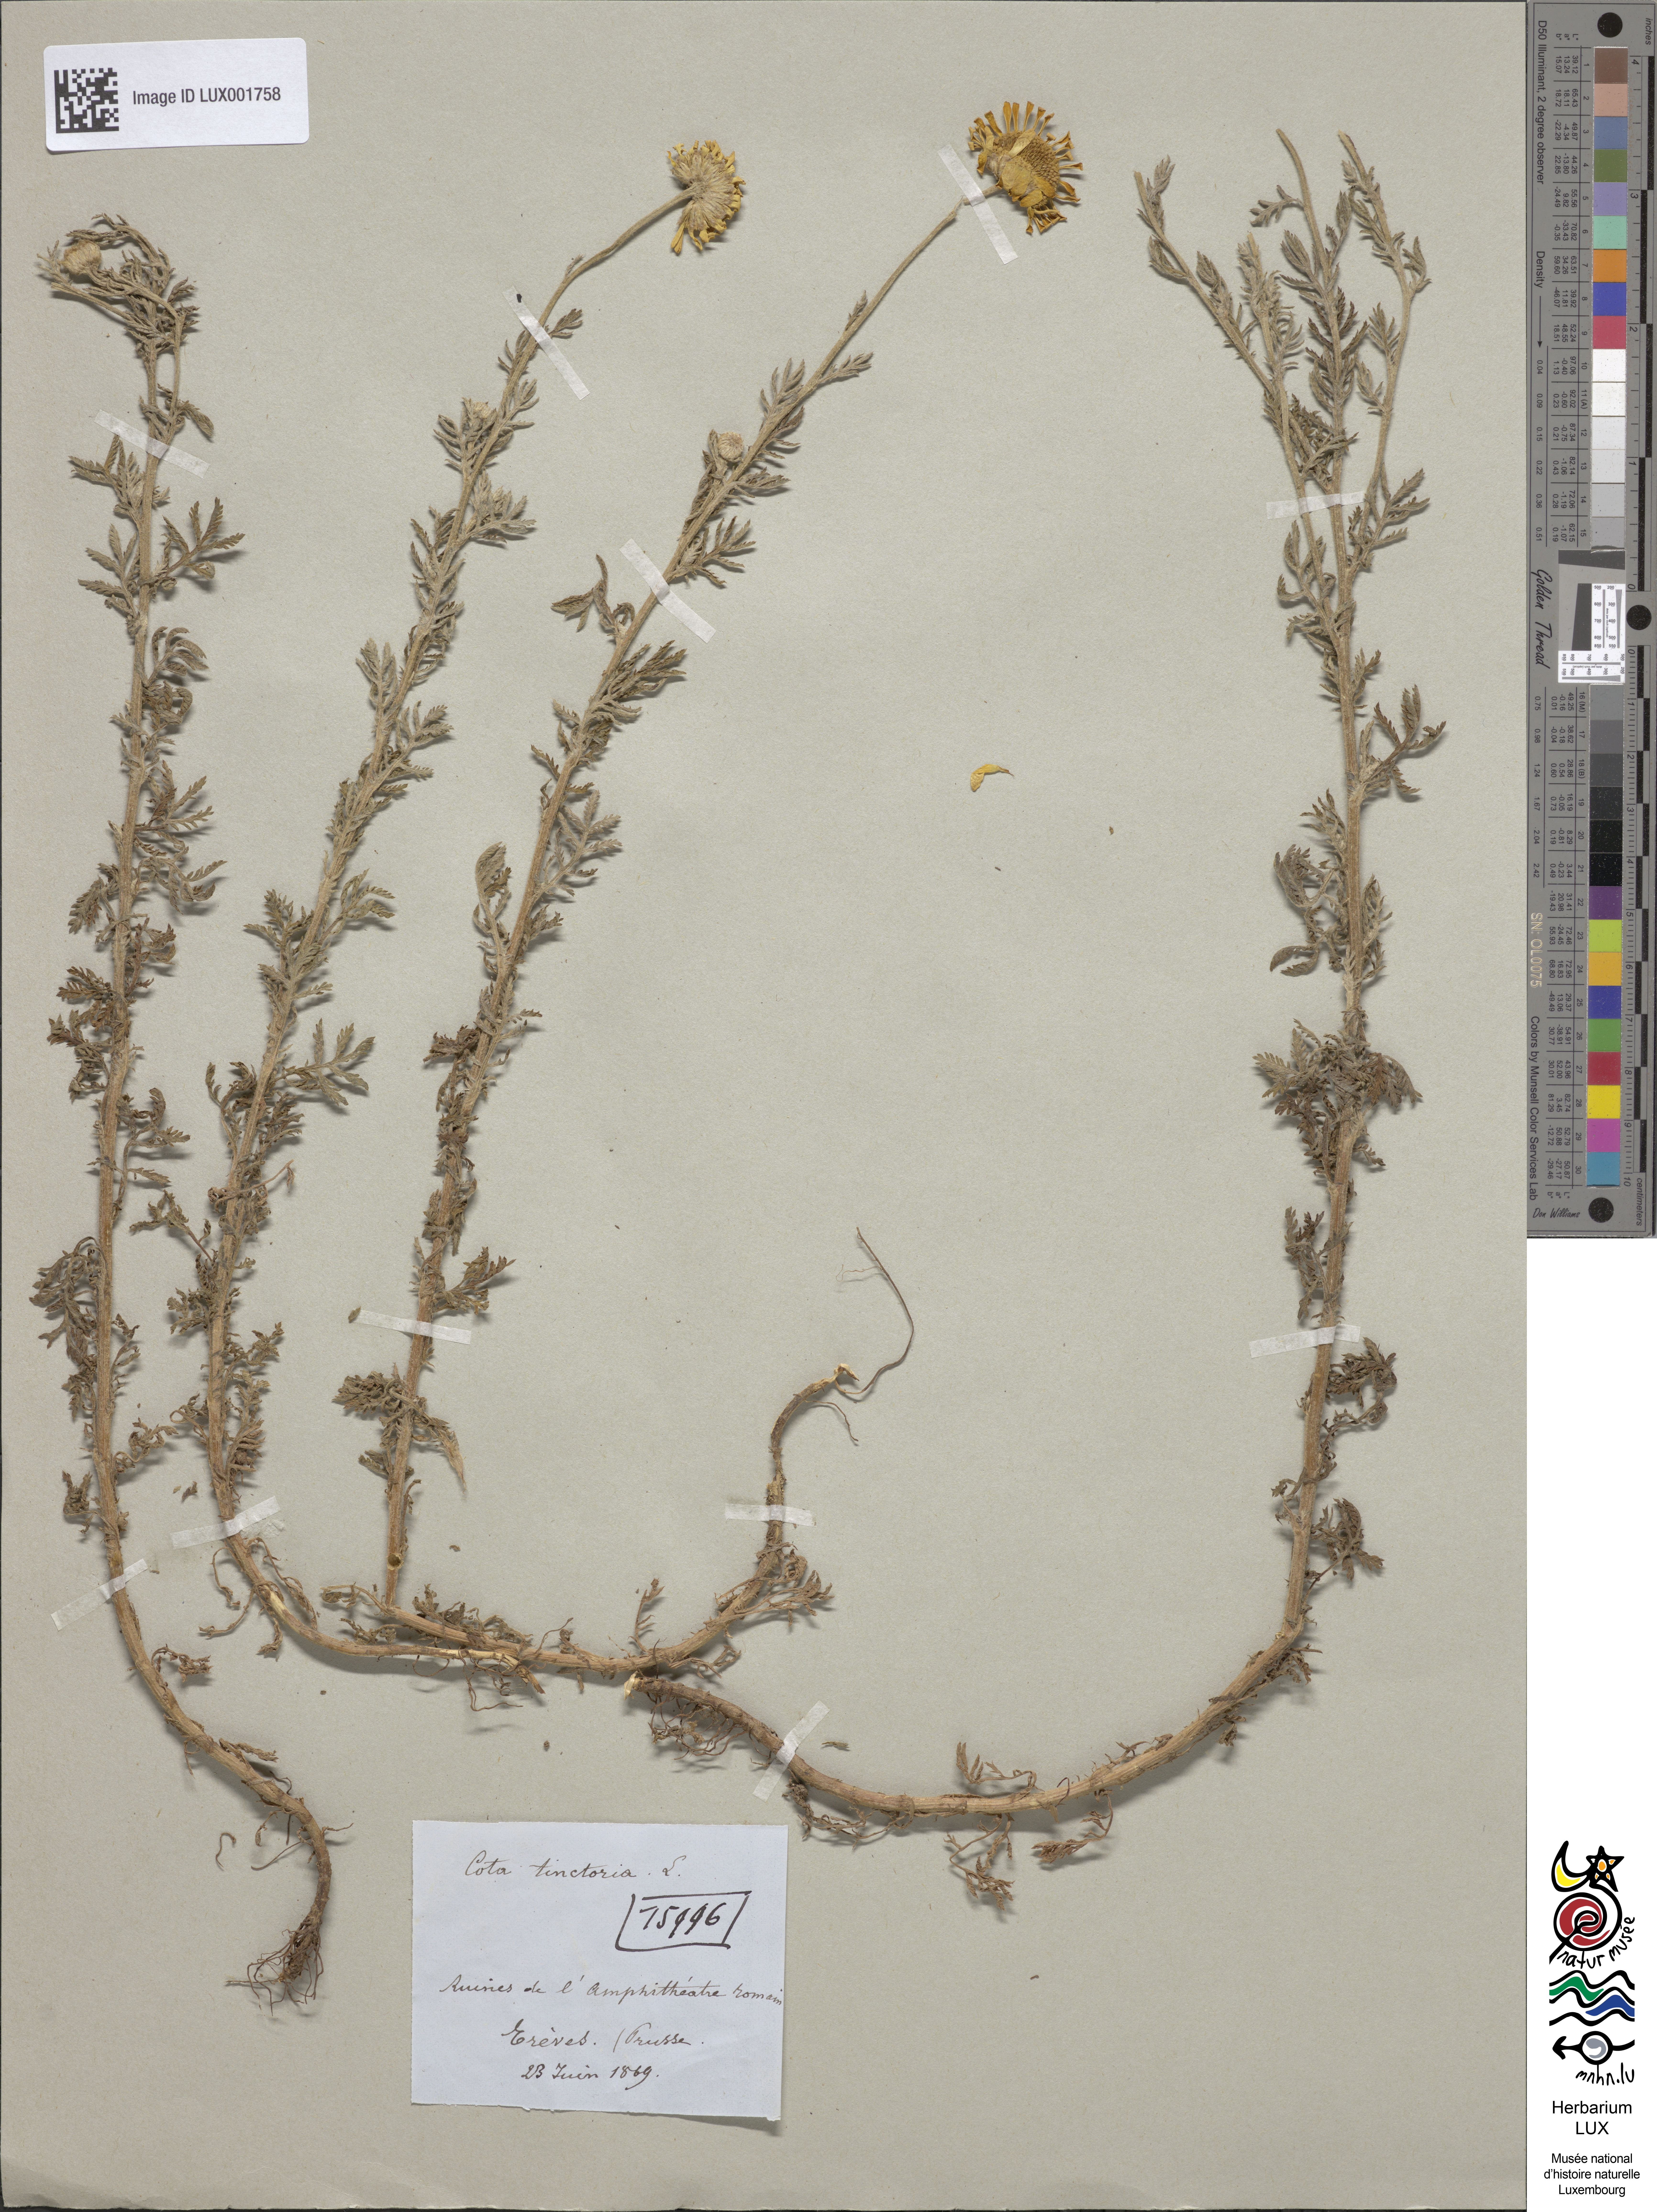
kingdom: Plantae
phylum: Tracheophyta
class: Magnoliopsida
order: Asterales
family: Asteraceae
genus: Cota
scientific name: Cota tinctoria
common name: Golden chamomile
